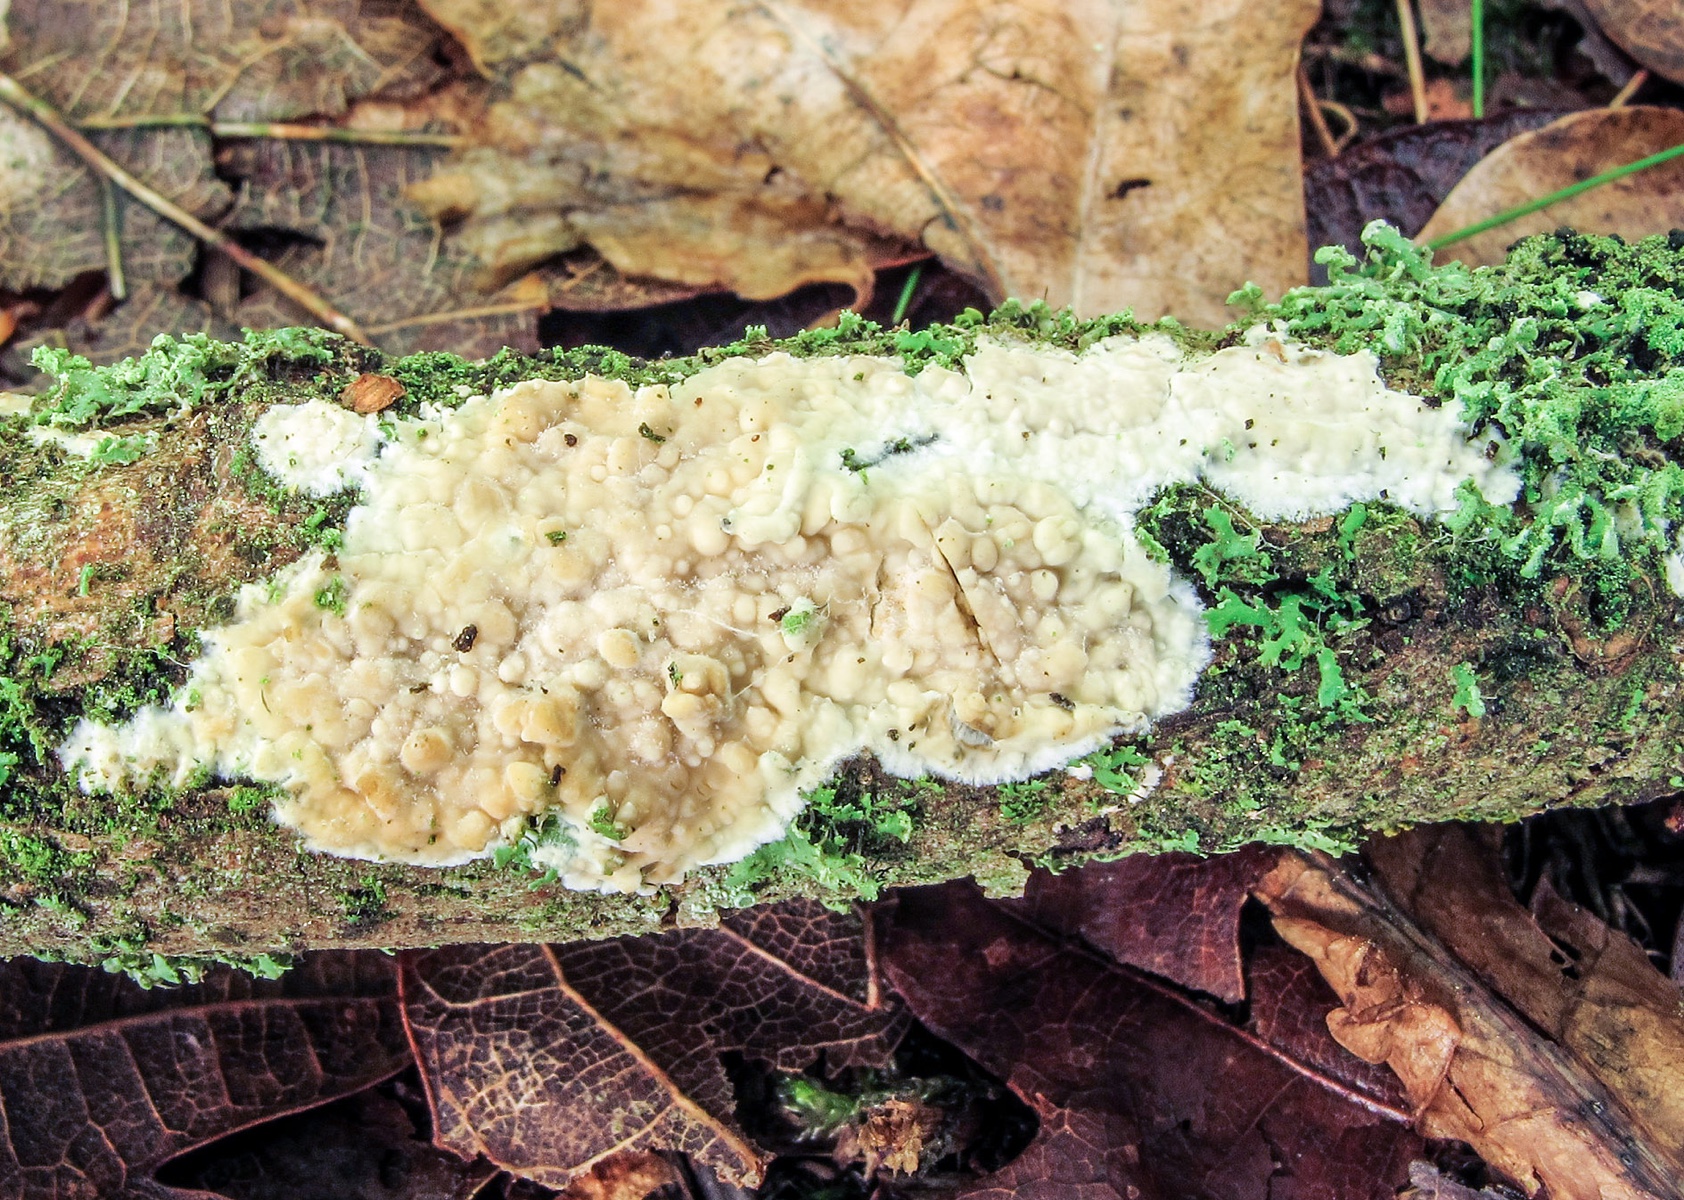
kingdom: Fungi
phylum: Basidiomycota
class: Agaricomycetes
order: Polyporales
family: Meruliaceae
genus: Cytidiella
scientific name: Cytidiella albida
